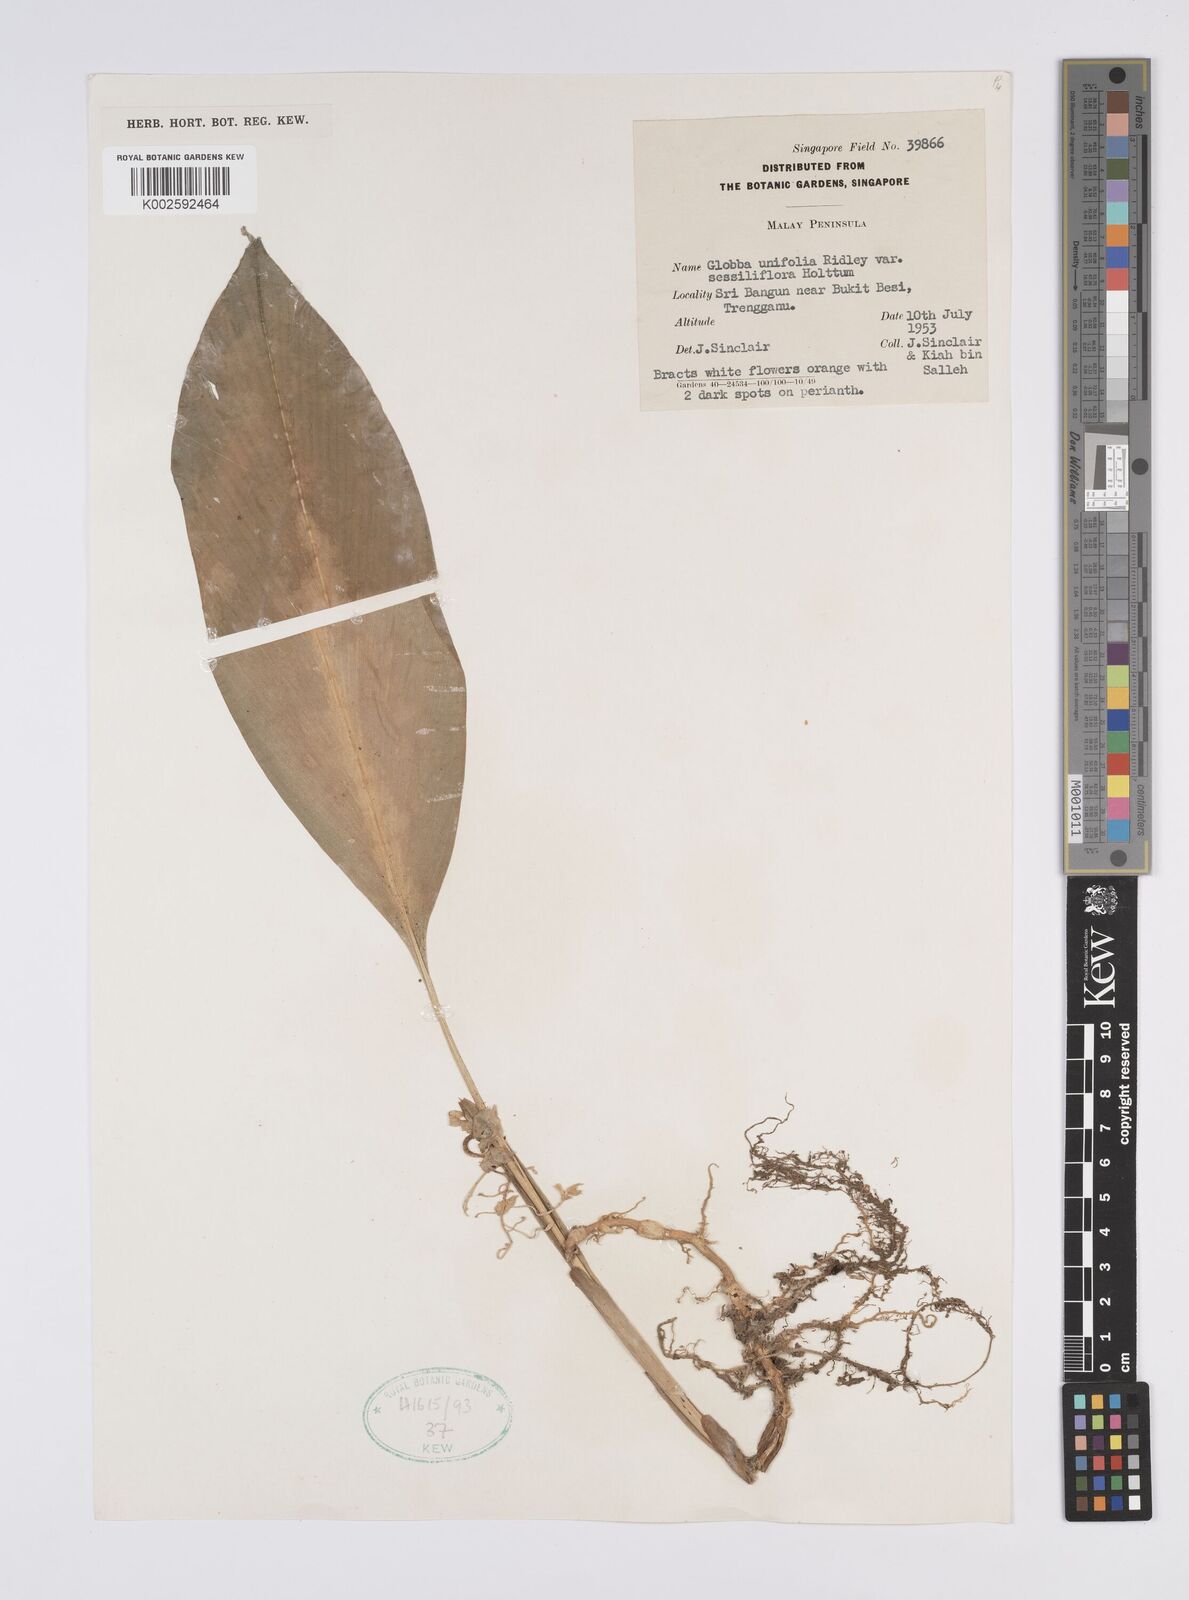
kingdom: Plantae
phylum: Tracheophyta
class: Liliopsida
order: Zingiberales
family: Zingiberaceae
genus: Globba
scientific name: Globba unifolia
